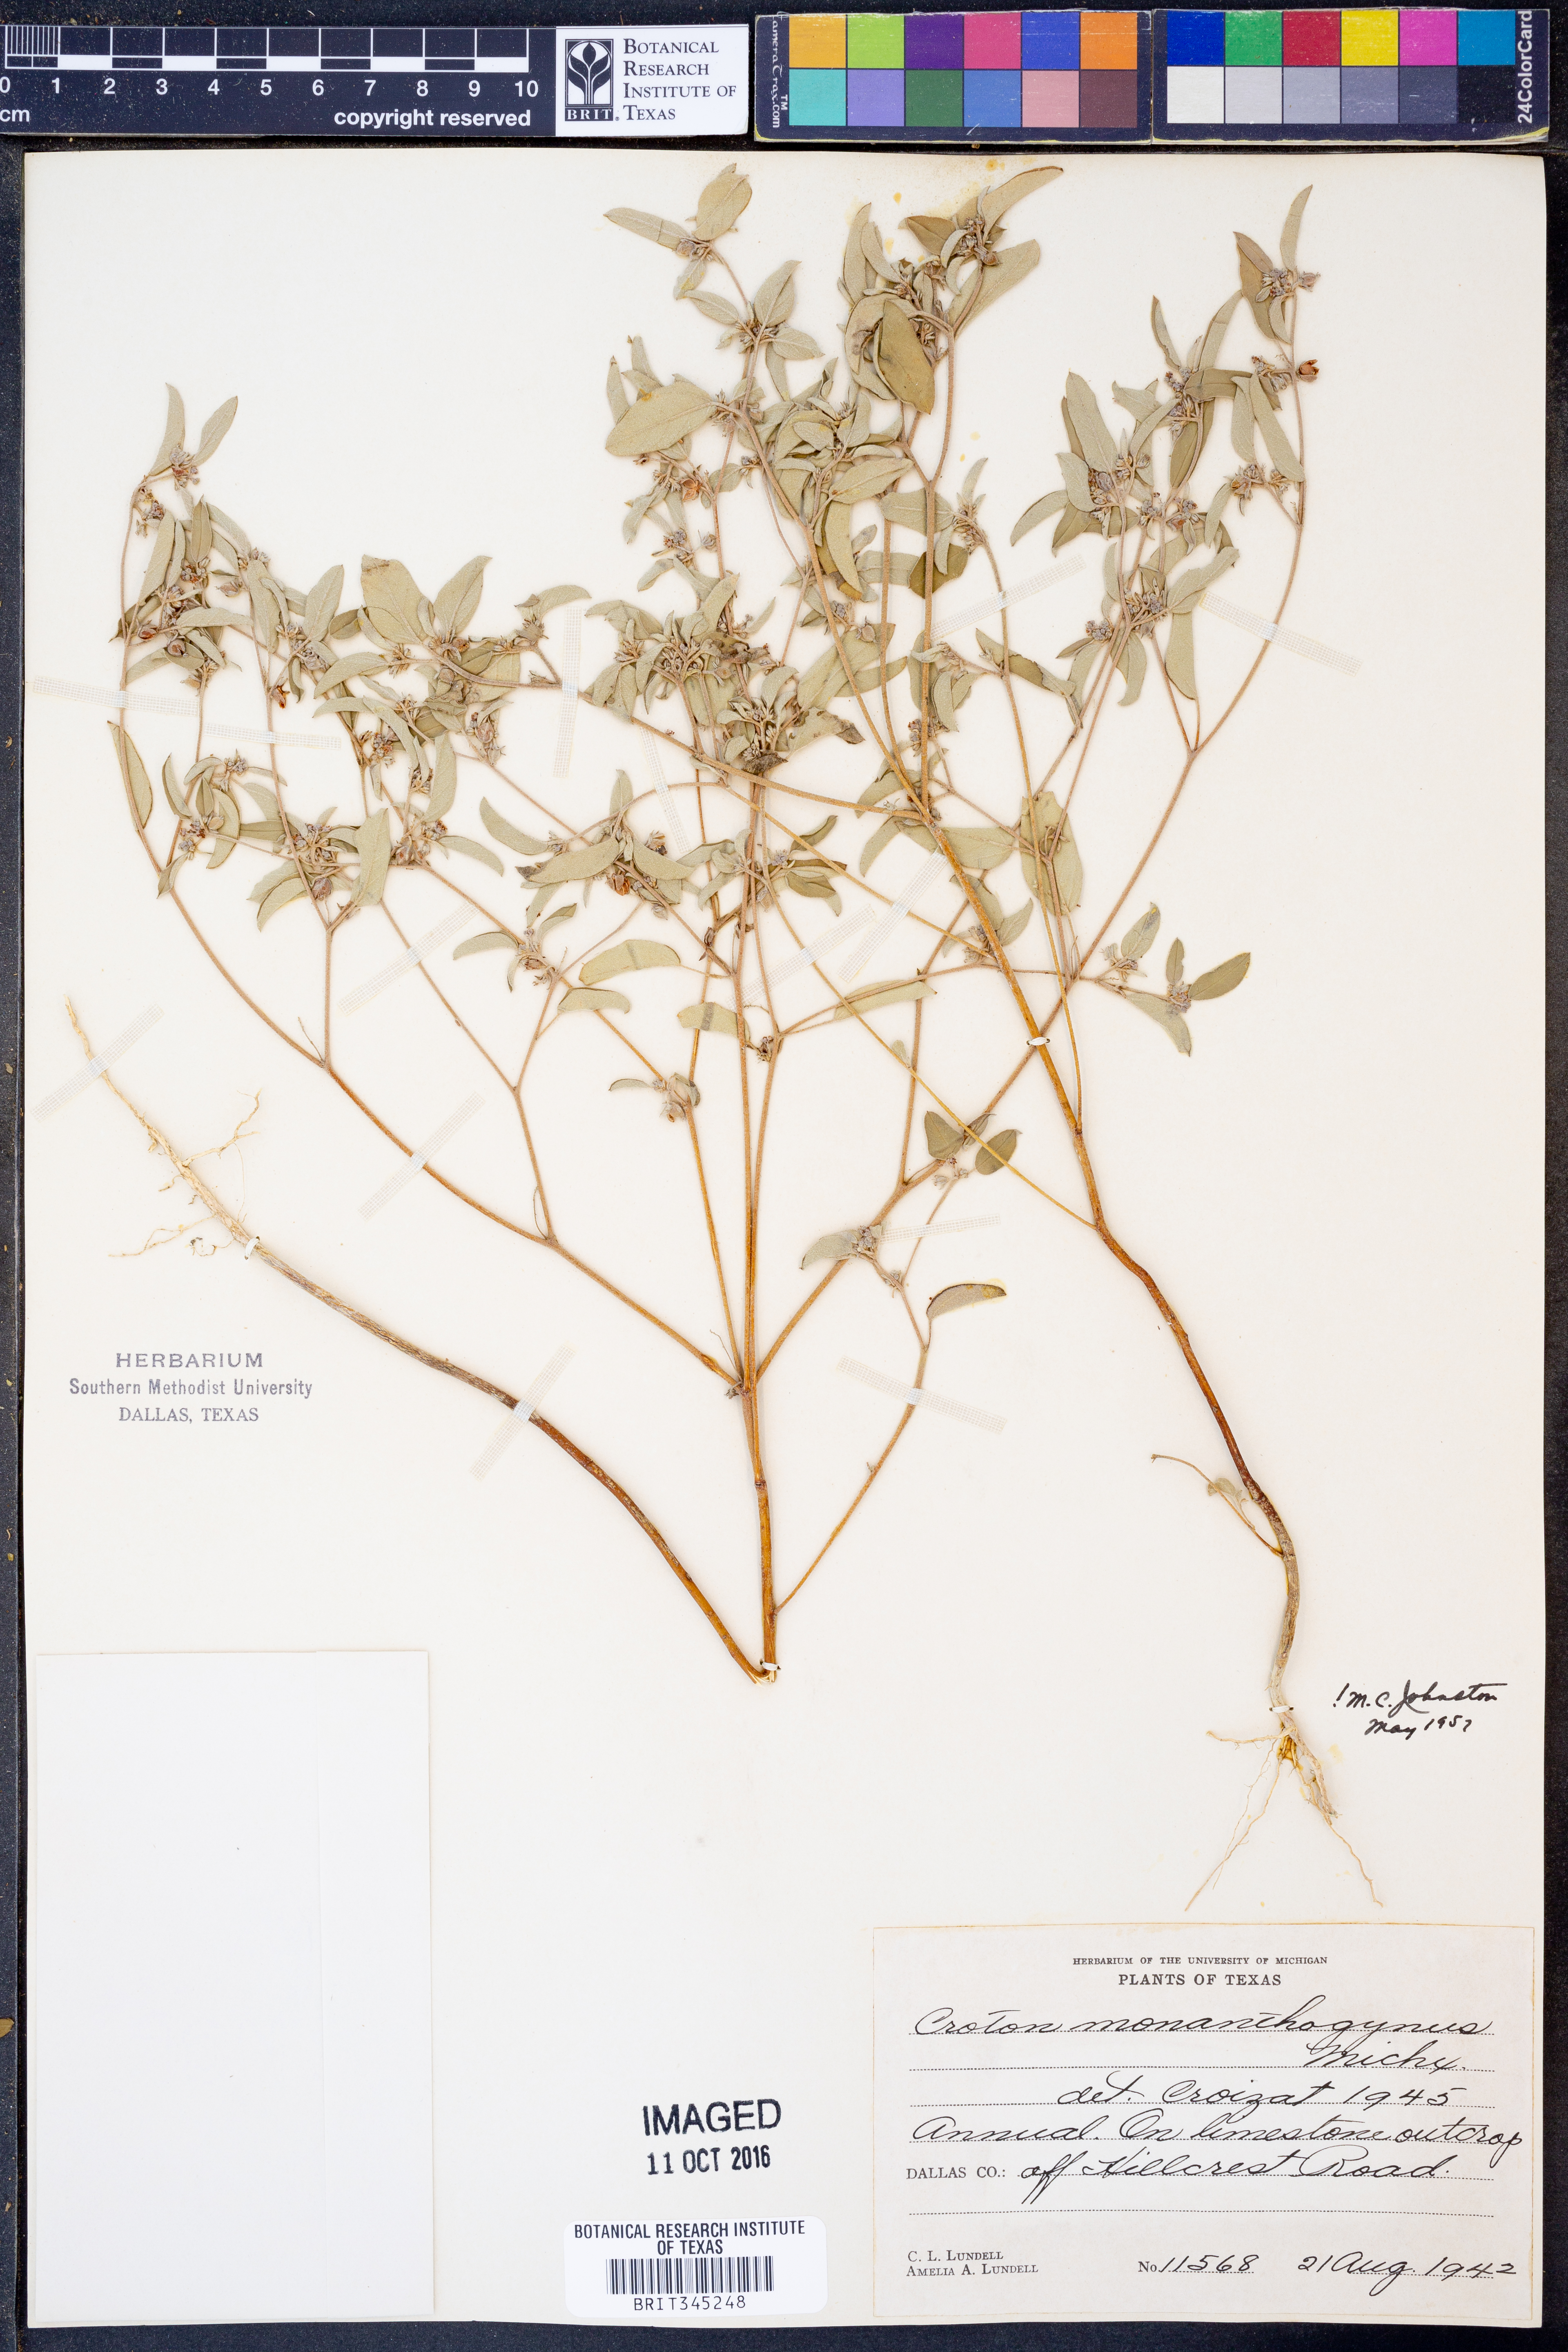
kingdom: Plantae
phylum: Tracheophyta
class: Magnoliopsida
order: Malpighiales
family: Euphorbiaceae
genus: Croton
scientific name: Croton monanthogynus
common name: One-seed croton
